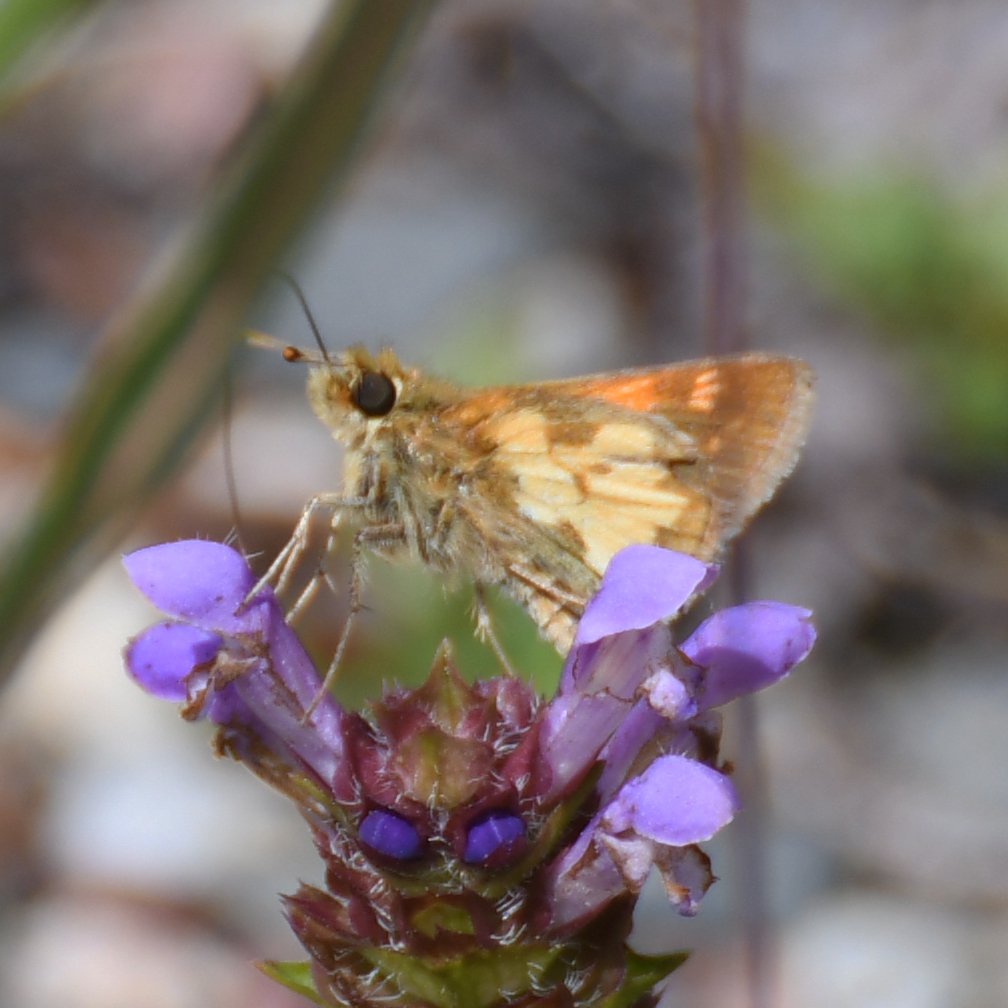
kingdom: Animalia
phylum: Arthropoda
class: Insecta
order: Lepidoptera
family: Hesperiidae
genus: Polites
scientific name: Polites coras
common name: Peck's Skipper
